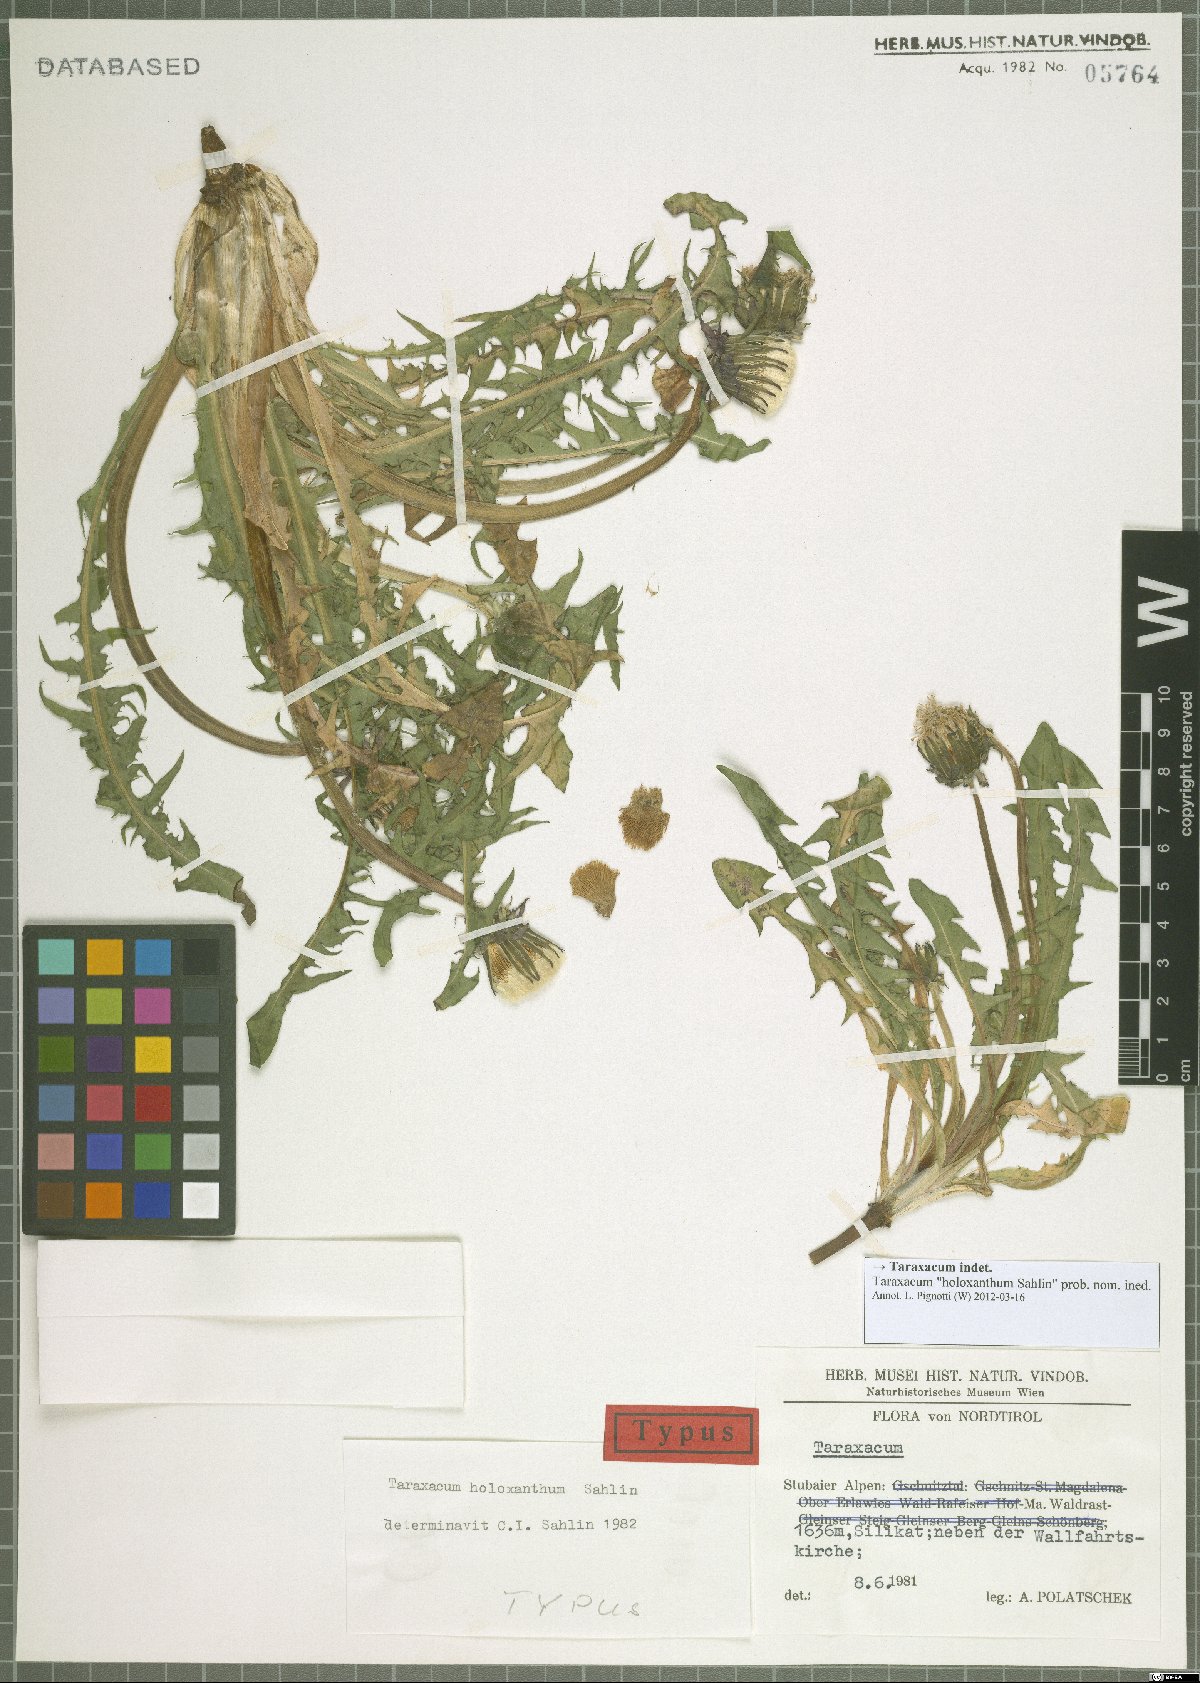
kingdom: Plantae
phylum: Tracheophyta
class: Magnoliopsida
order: Asterales
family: Asteraceae
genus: Taraxacum
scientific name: Taraxacum
